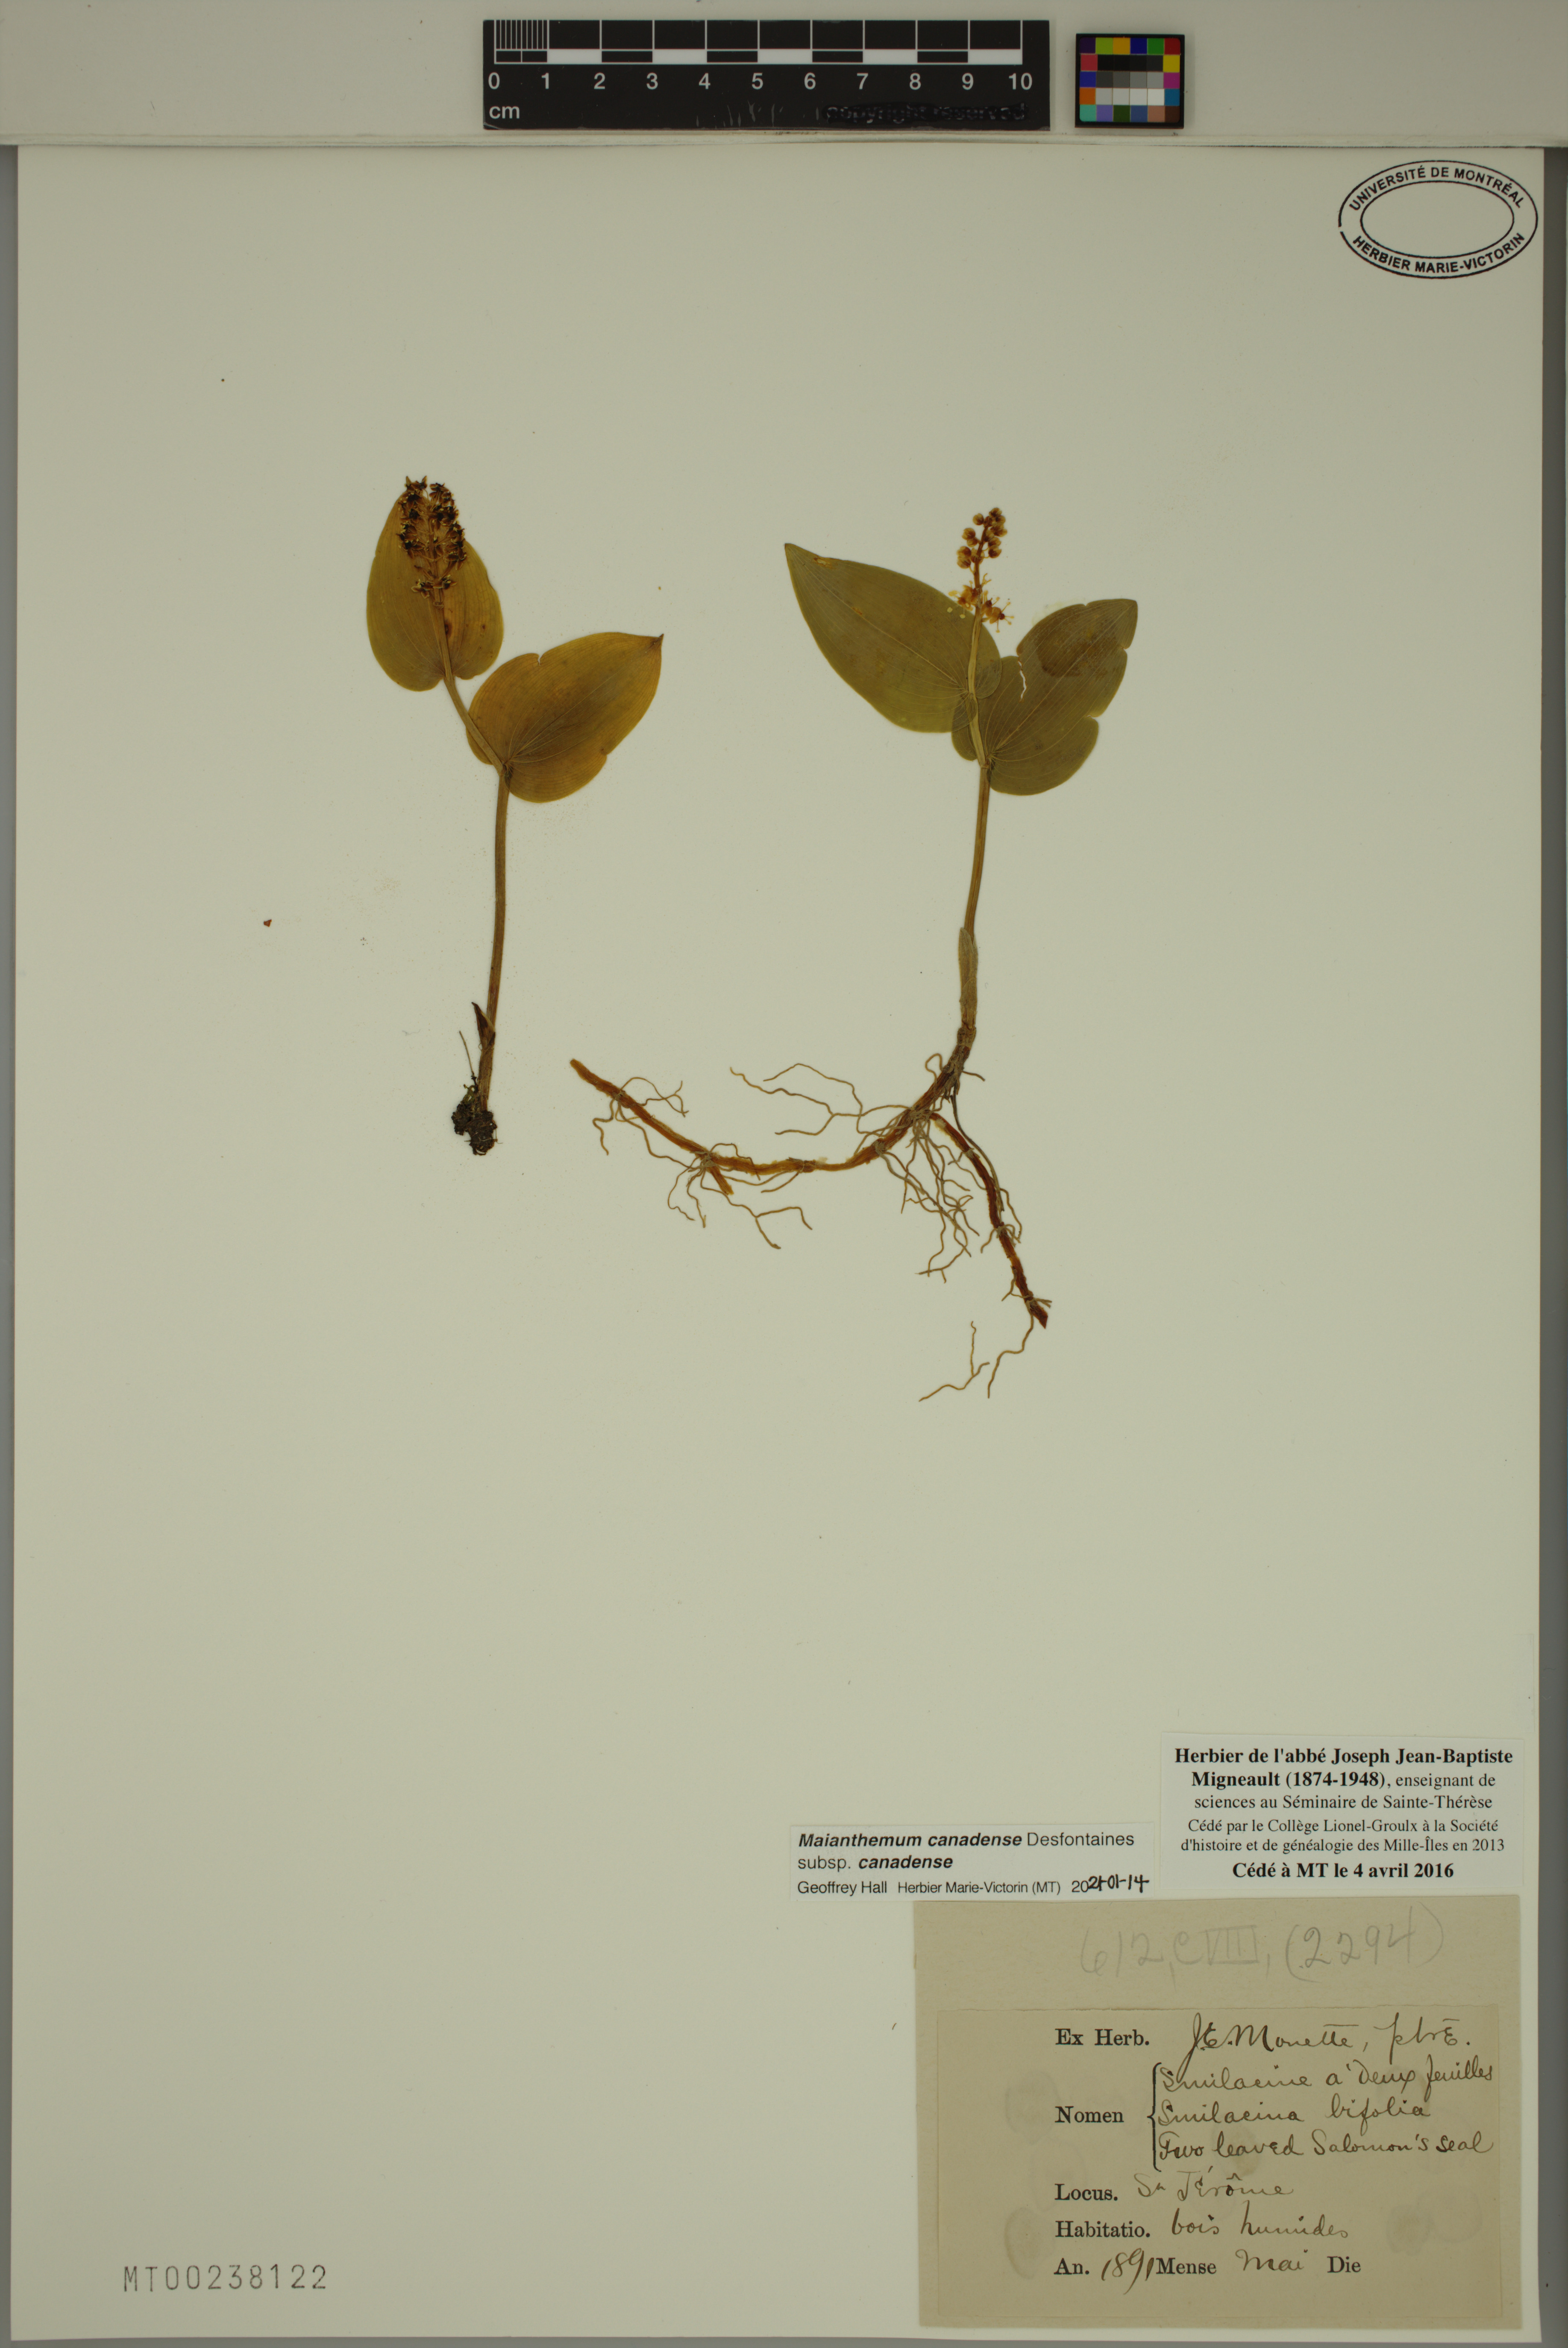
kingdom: Plantae
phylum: Tracheophyta
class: Liliopsida
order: Asparagales
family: Asparagaceae
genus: Maianthemum
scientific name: Maianthemum canadense
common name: False lily-of-the-valley
